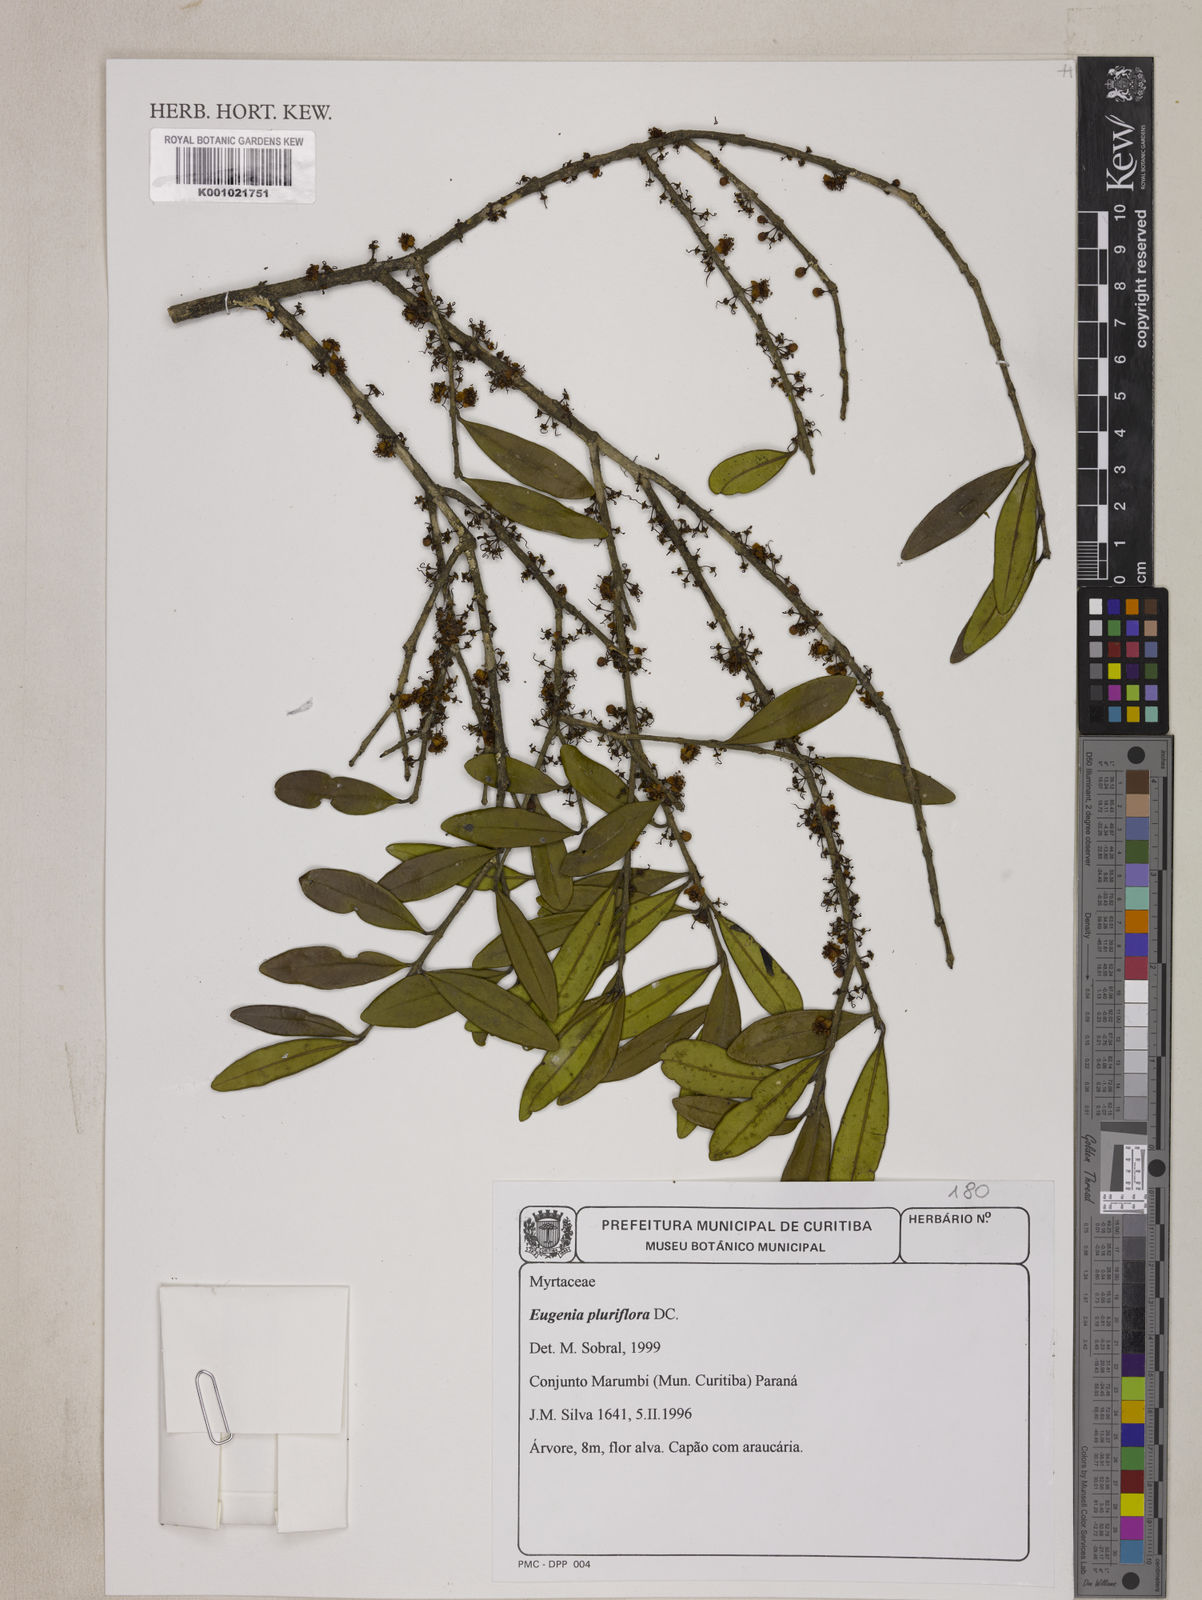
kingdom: Plantae
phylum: Tracheophyta
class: Magnoliopsida
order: Myrtales
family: Myrtaceae
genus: Eugenia
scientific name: Eugenia pluriflora
